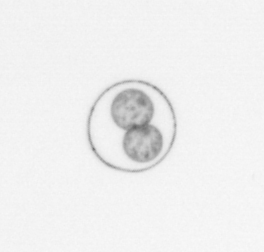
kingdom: Chromista
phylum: Myzozoa
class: Dinophyceae
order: Noctilucales
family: Noctilucaceae
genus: Noctiluca
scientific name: Noctiluca scintillans
